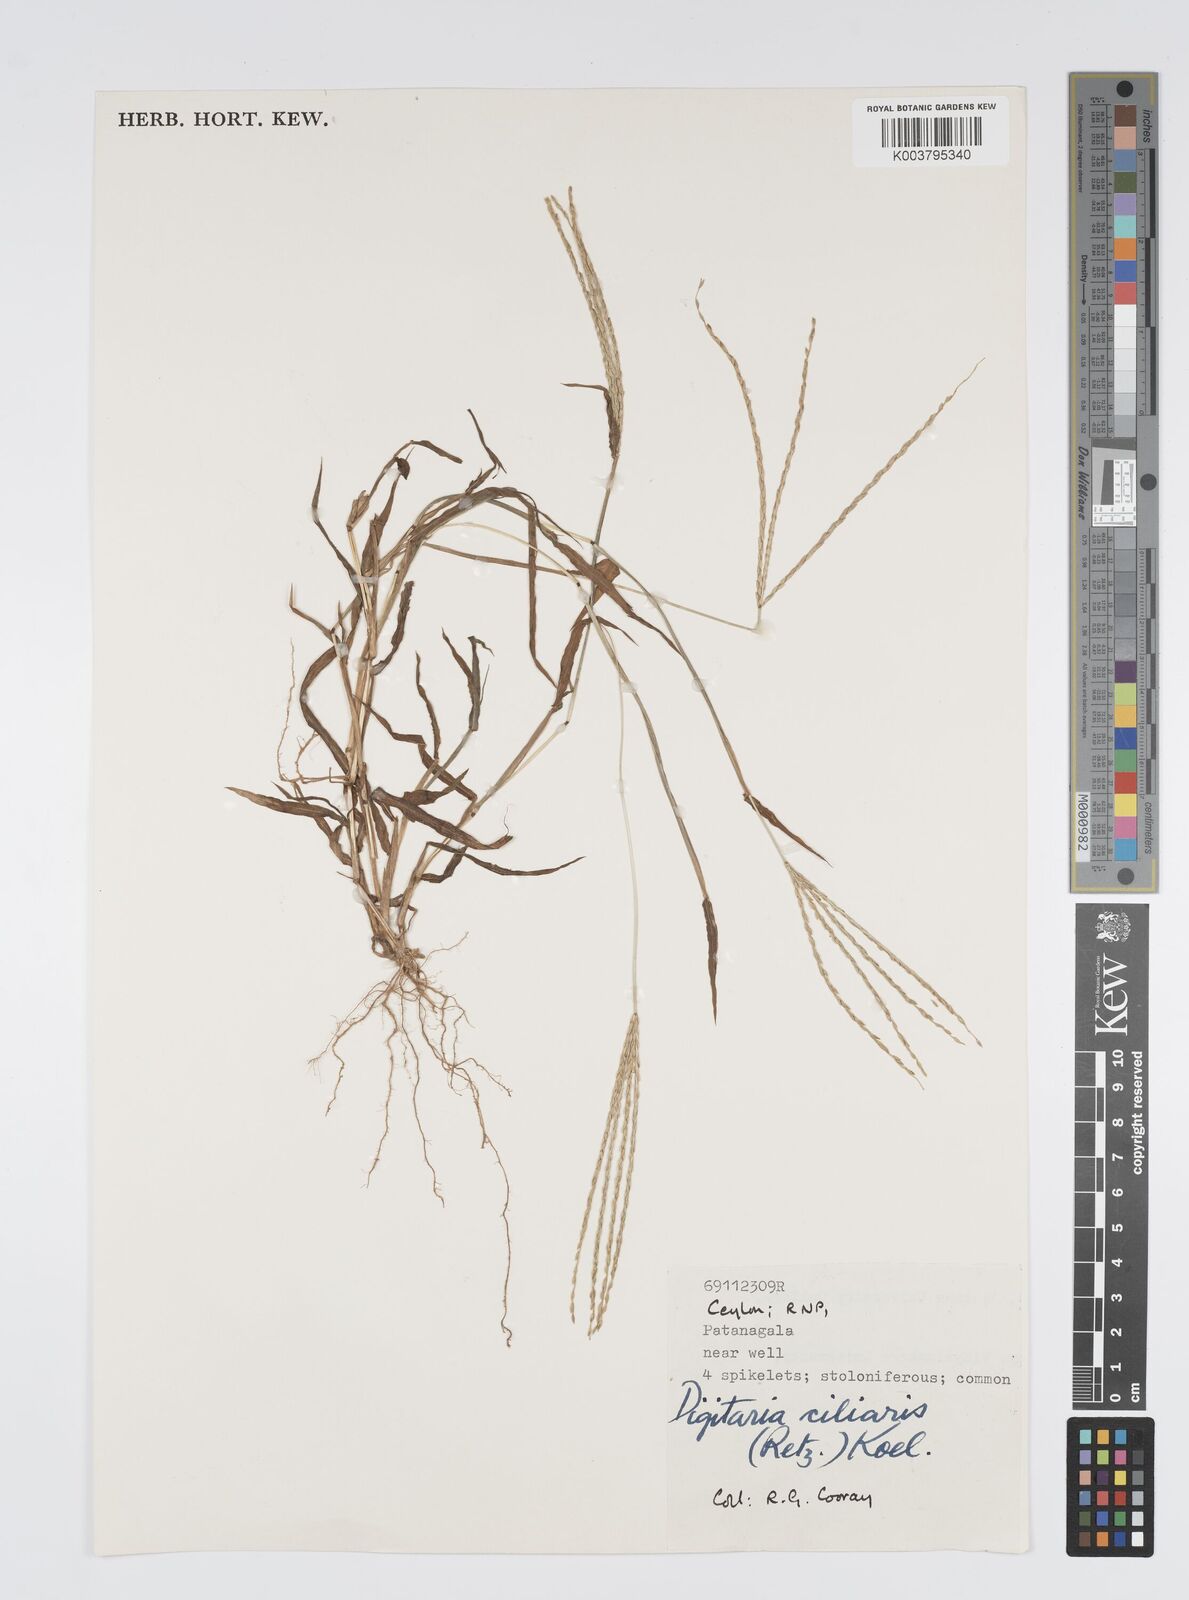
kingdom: Plantae
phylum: Tracheophyta
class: Liliopsida
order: Poales
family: Poaceae
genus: Digitaria
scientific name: Digitaria ciliaris
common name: Tropical finger-grass
